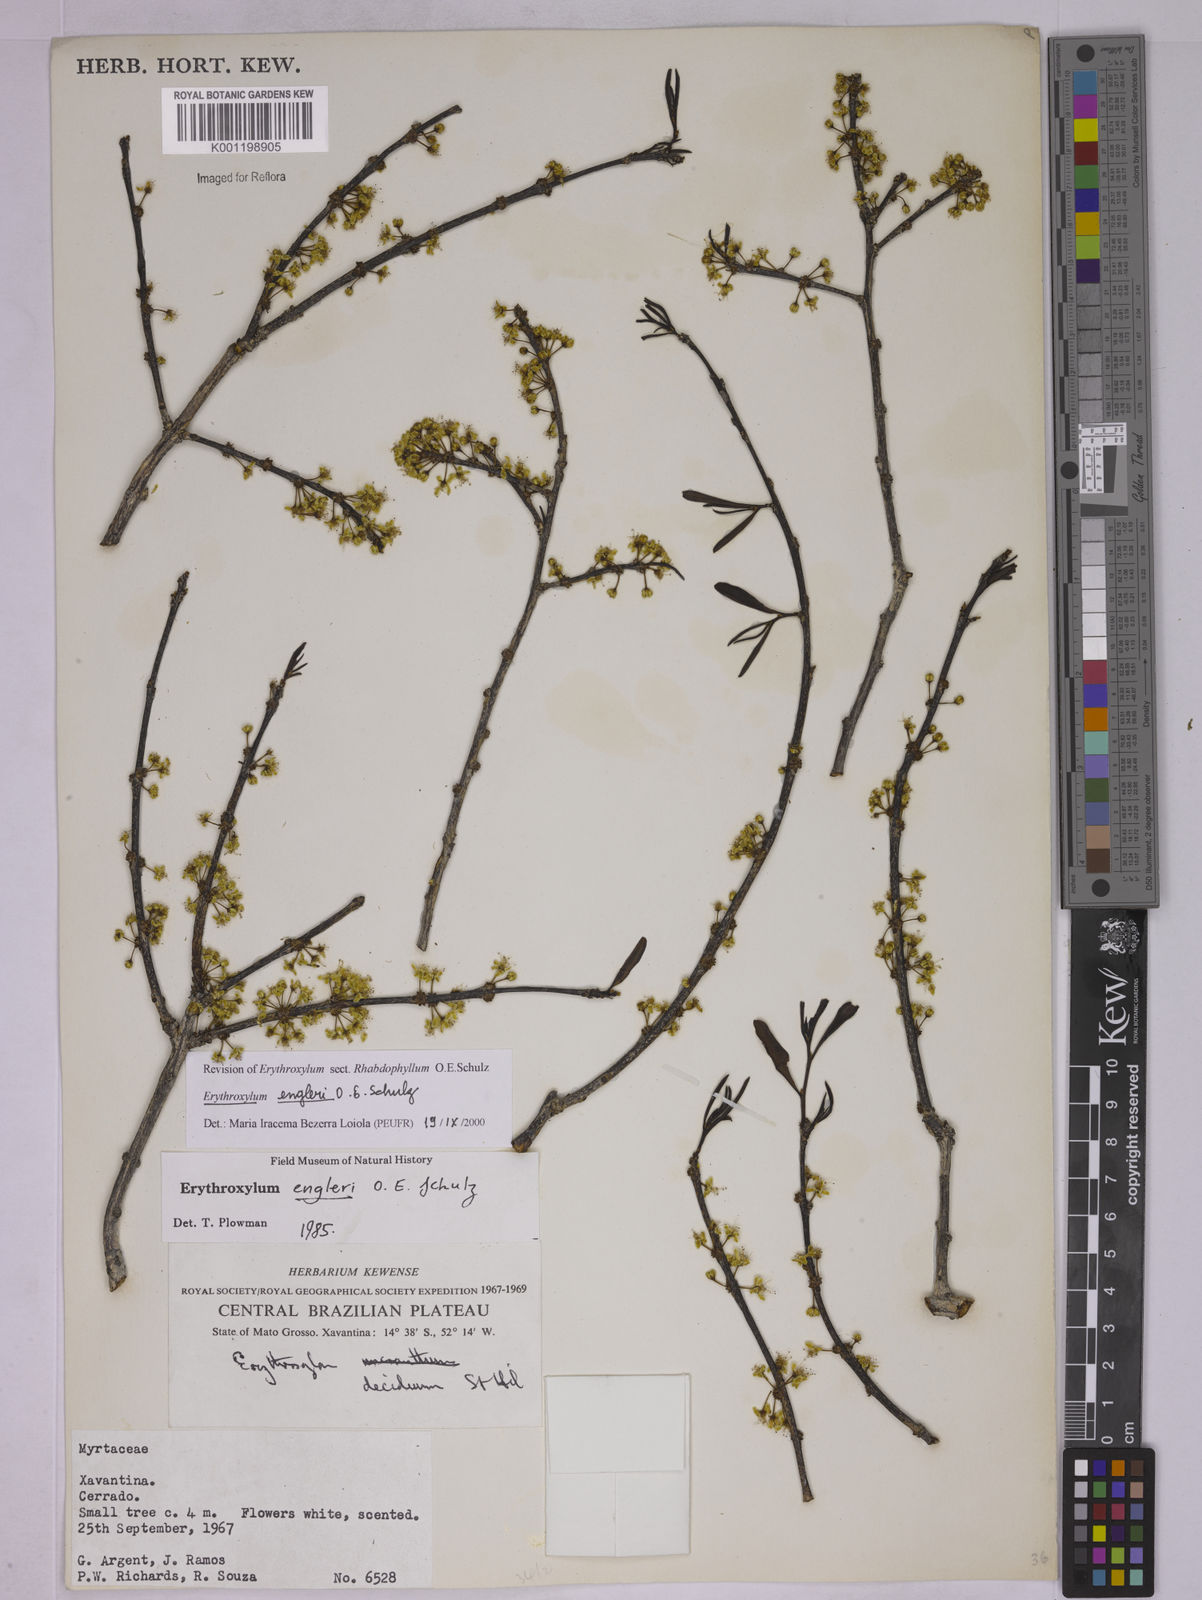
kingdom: Plantae
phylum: Tracheophyta
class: Magnoliopsida
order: Malpighiales
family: Erythroxylaceae
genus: Erythroxylum
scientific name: Erythroxylum engleri
